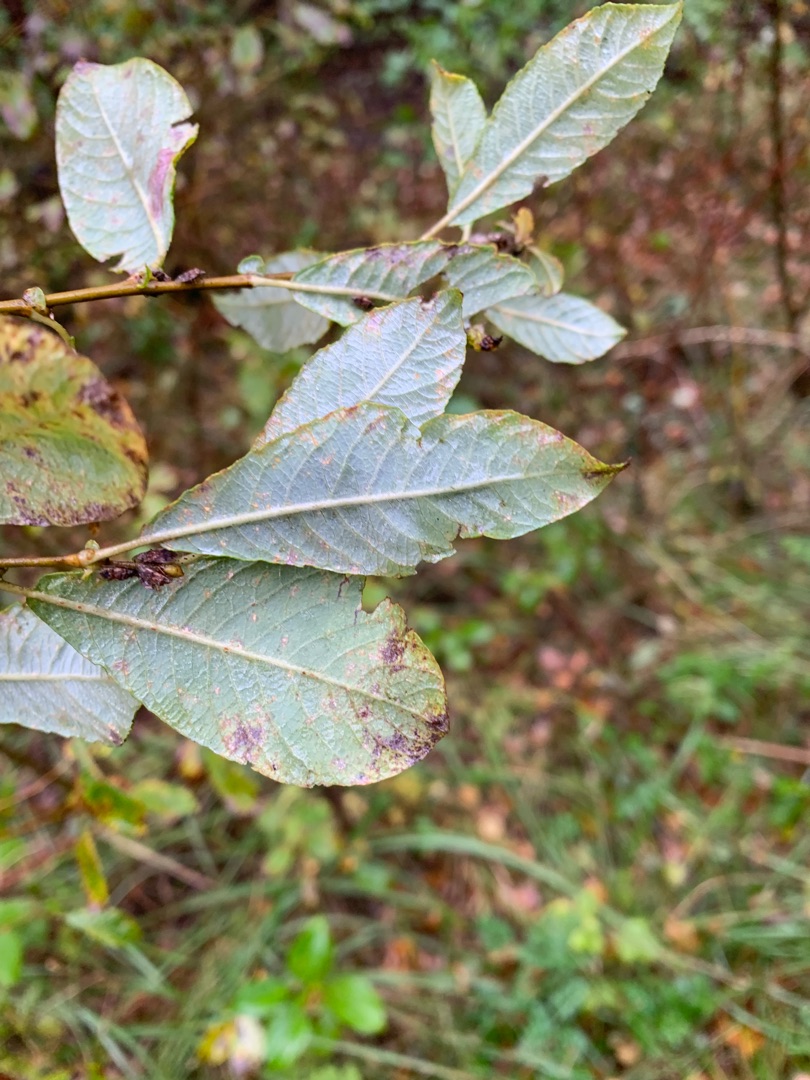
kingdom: Plantae
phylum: Tracheophyta
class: Magnoliopsida
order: Malpighiales
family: Salicaceae
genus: Salix
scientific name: Salix cinerea
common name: Grå-pil
